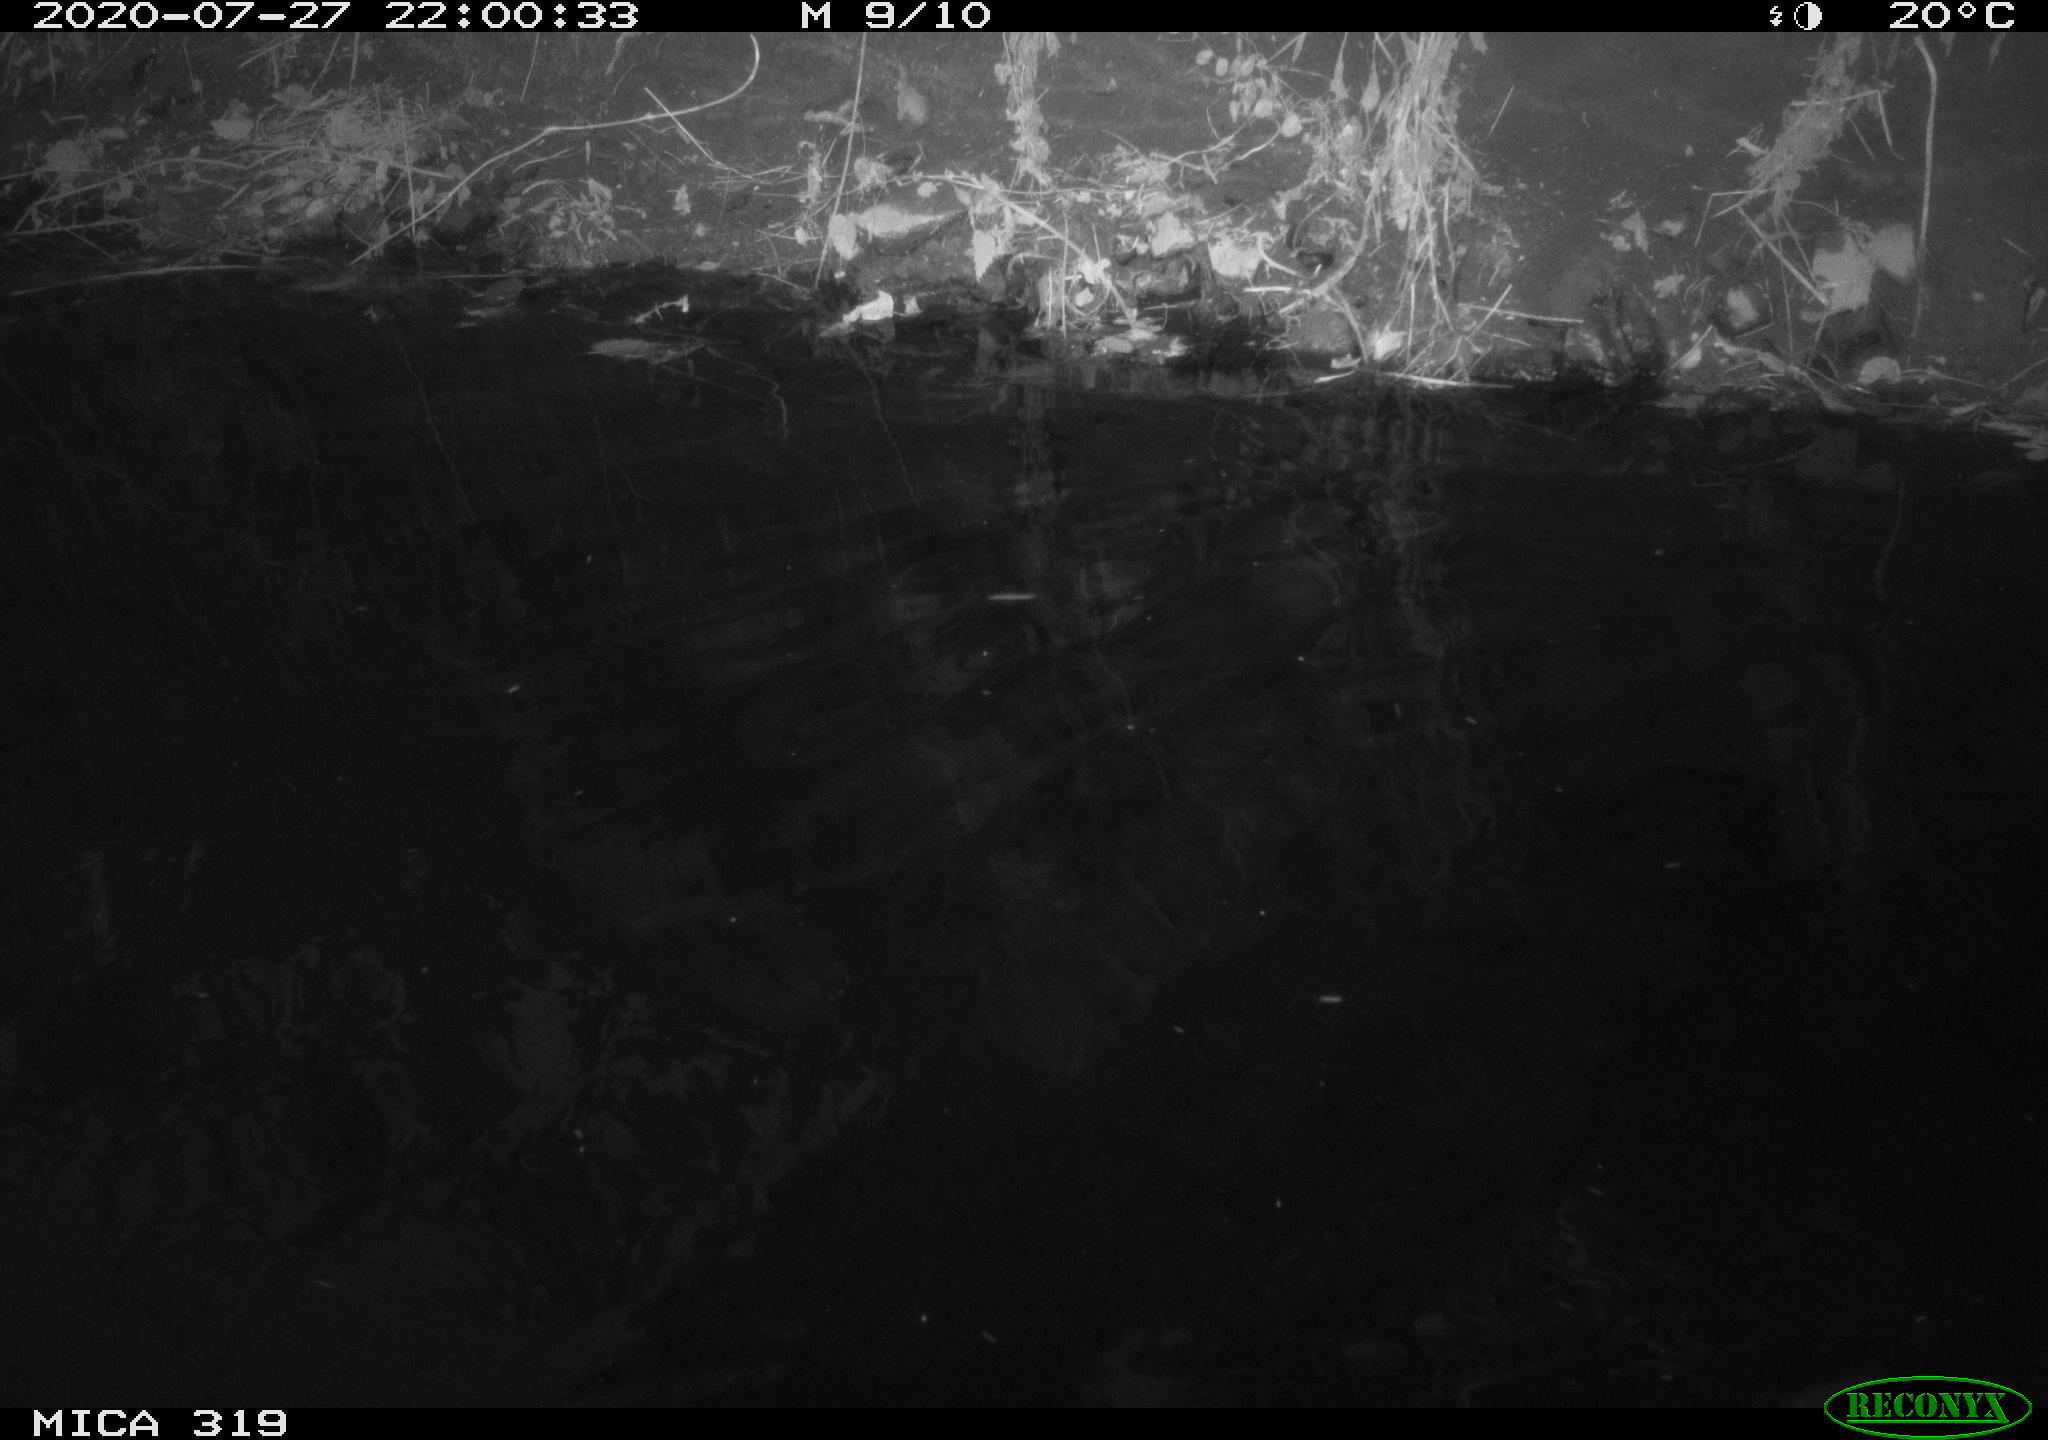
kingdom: Animalia
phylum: Chordata
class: Aves
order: Anseriformes
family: Anatidae
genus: Anas
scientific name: Anas platyrhynchos
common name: Mallard
